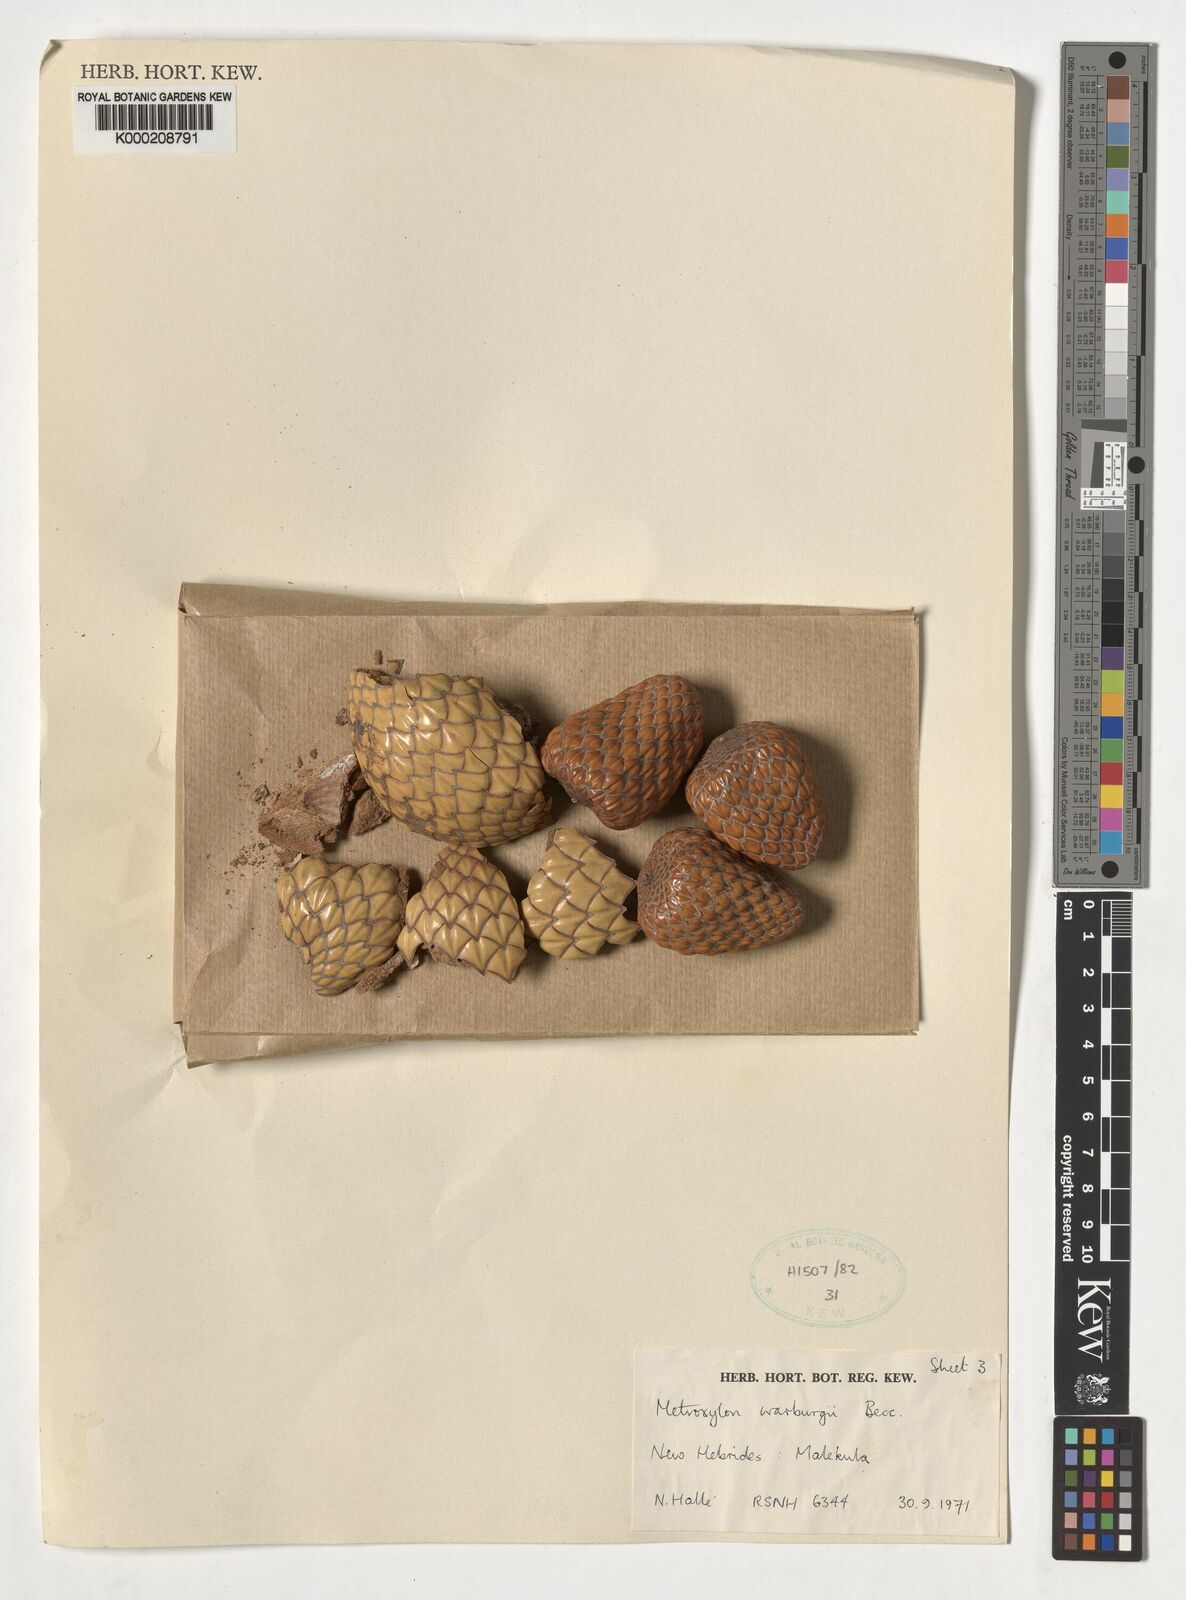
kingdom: Plantae
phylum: Tracheophyta
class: Liliopsida
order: Arecales
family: Arecaceae
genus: Metroxylon
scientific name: Metroxylon warburgii
